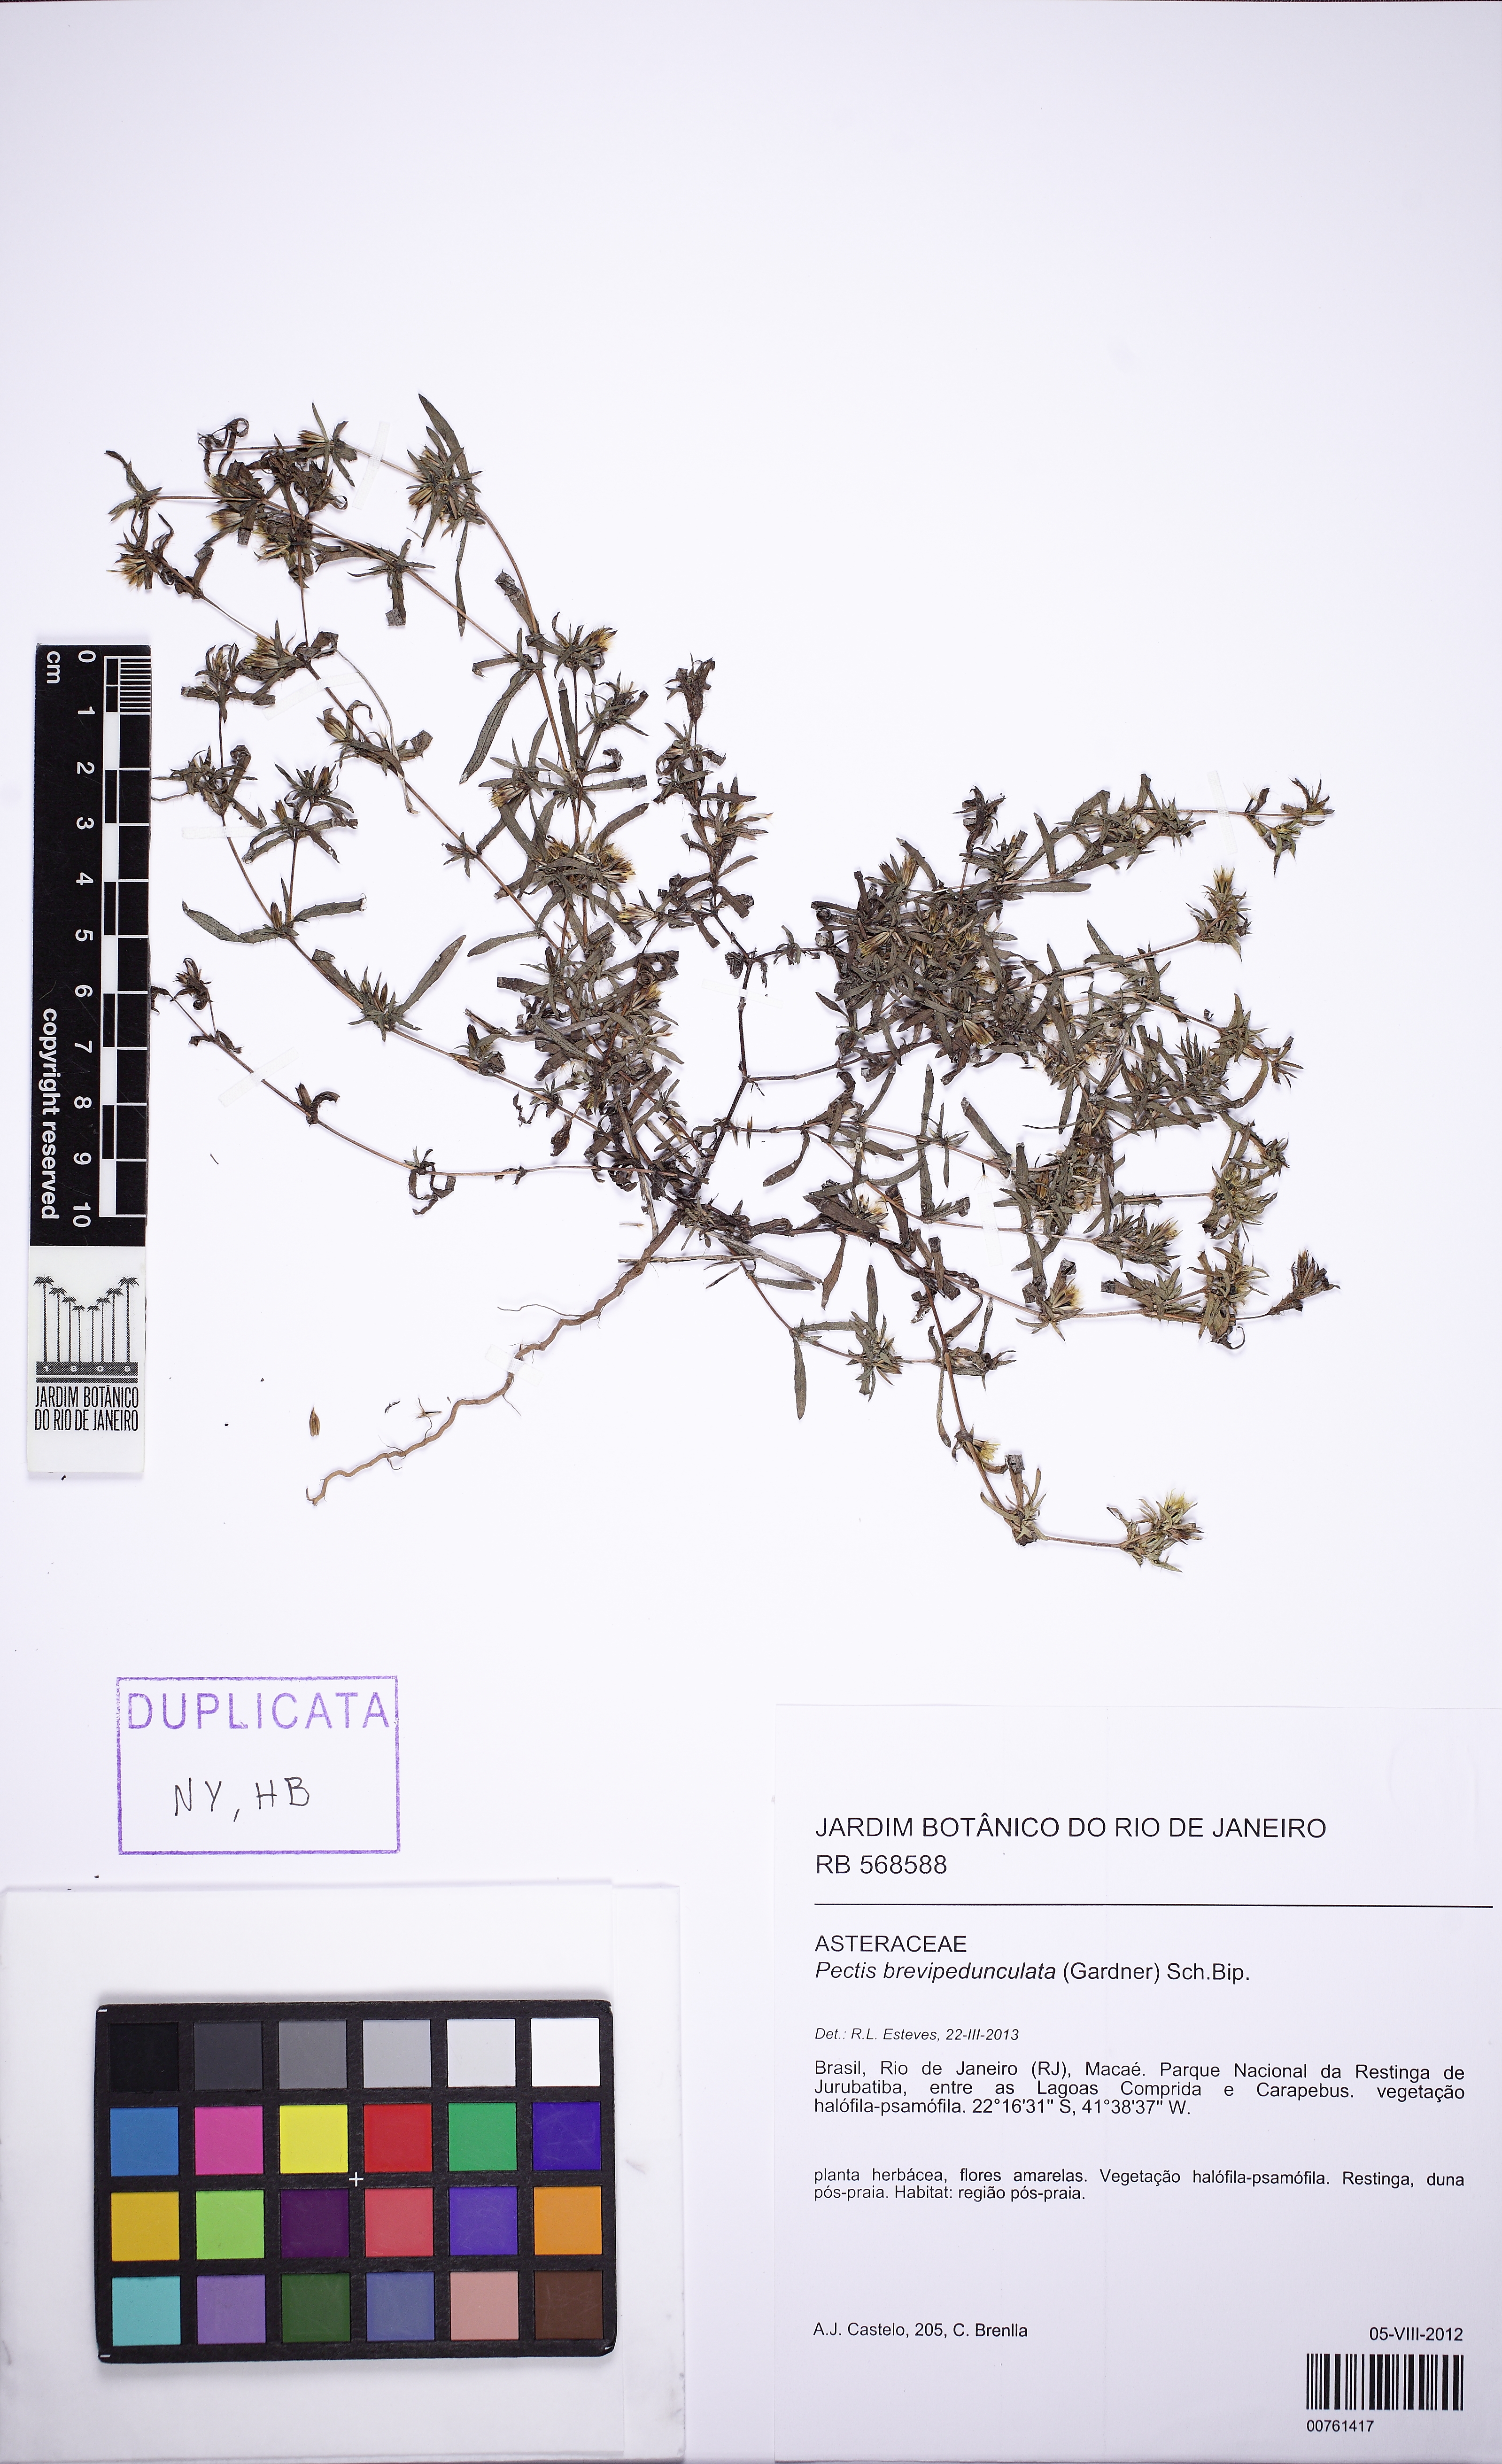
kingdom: Plantae
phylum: Tracheophyta
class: Magnoliopsida
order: Asterales
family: Asteraceae
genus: Pectis
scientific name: Pectis brevipedunculata
